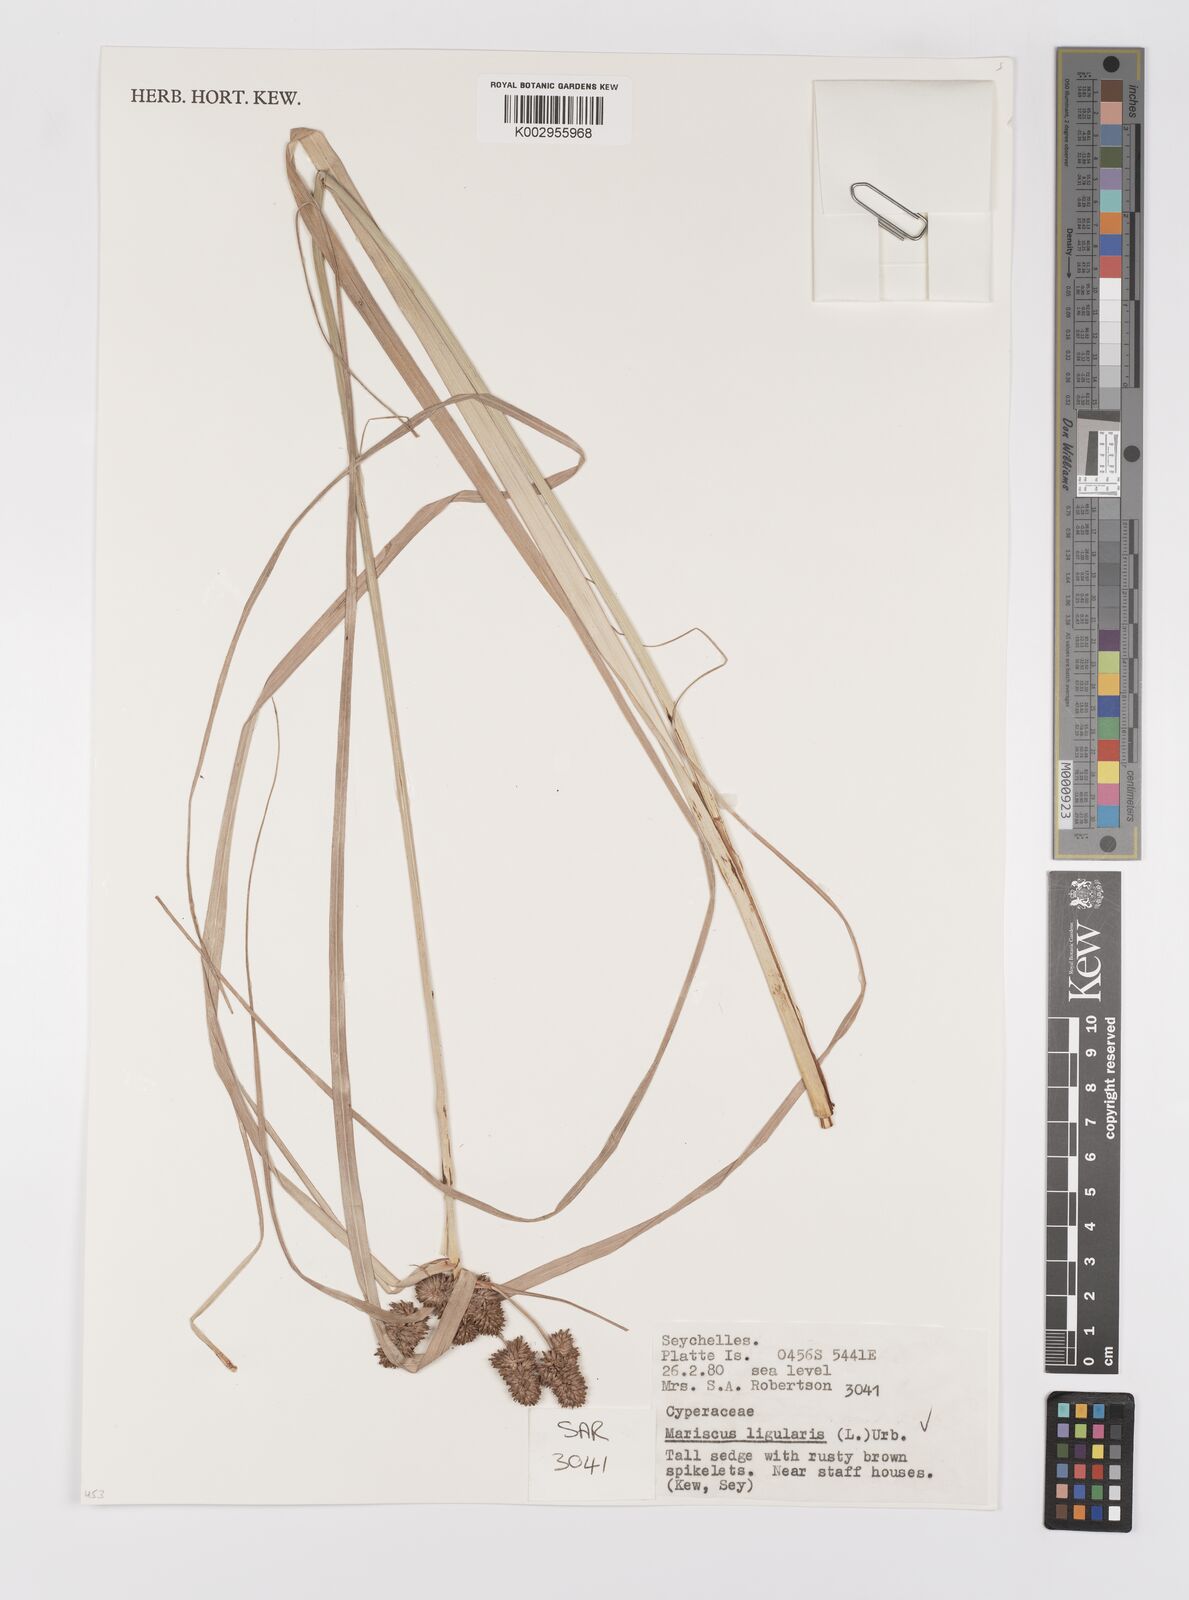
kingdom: Plantae
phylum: Tracheophyta
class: Liliopsida
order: Poales
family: Cyperaceae
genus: Cyperus
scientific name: Cyperus ligularis
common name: Swamp flat sedge
